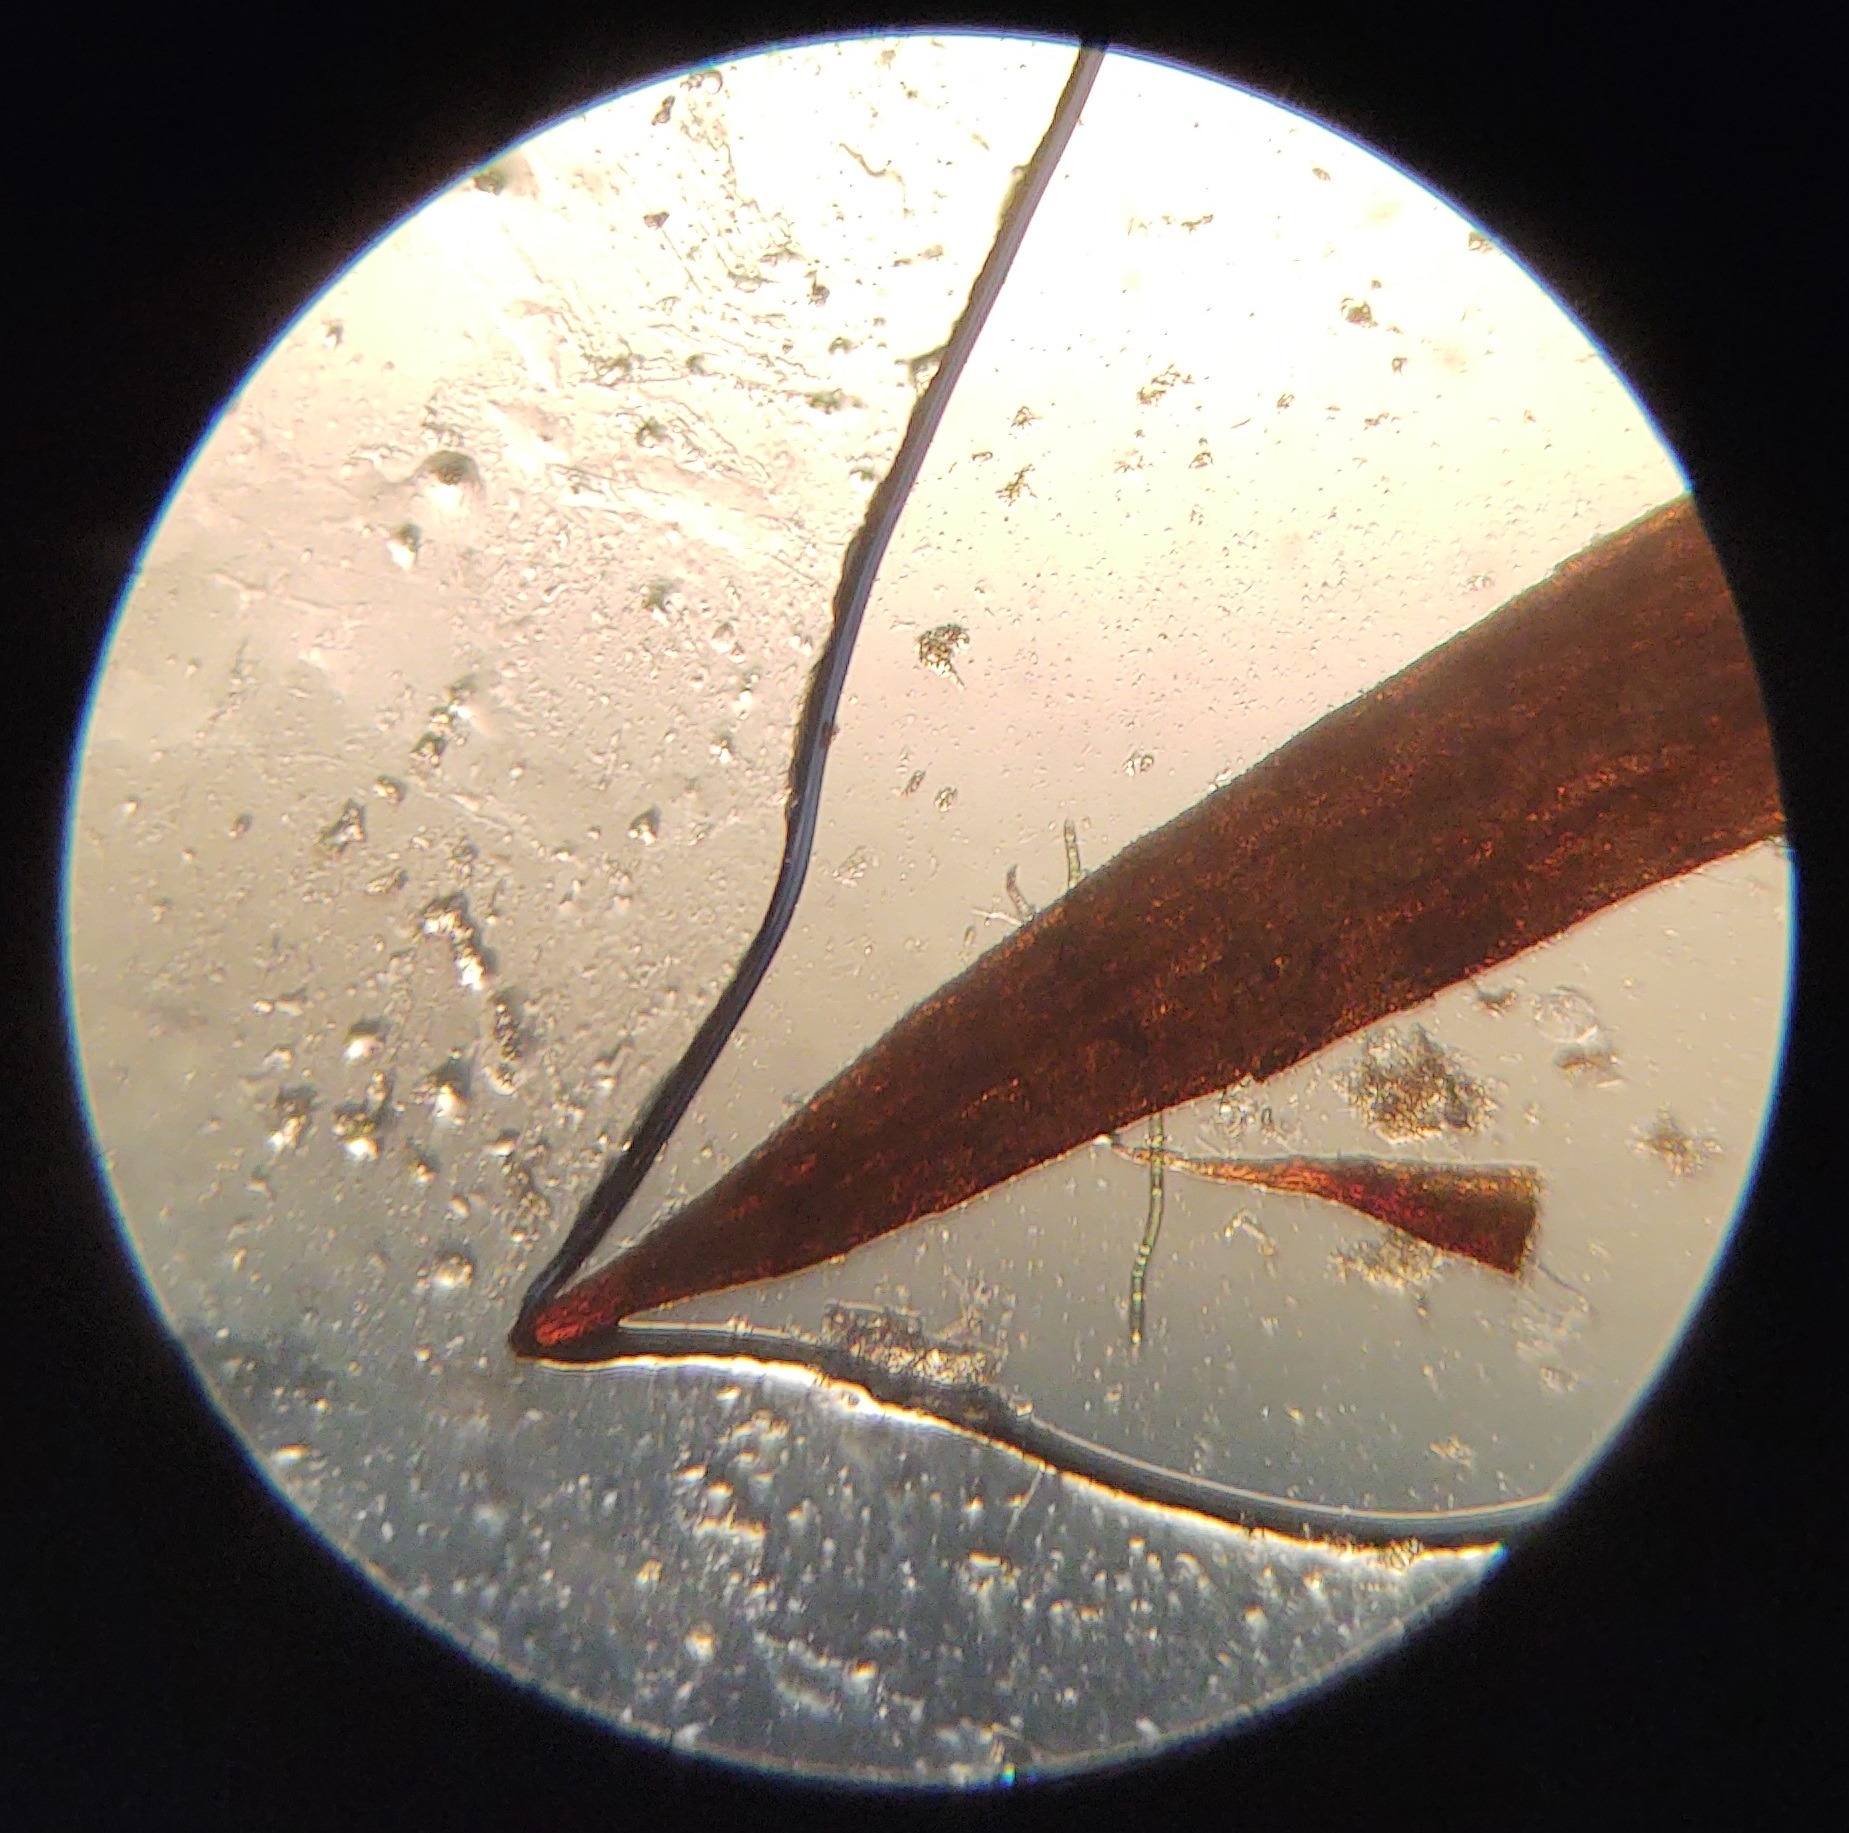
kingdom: Plantae
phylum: Bryophyta
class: Polytrichopsida
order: Polytrichales
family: Polytrichaceae
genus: Polytrichum
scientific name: Polytrichum juniperinum
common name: Ene-jomfruhår
